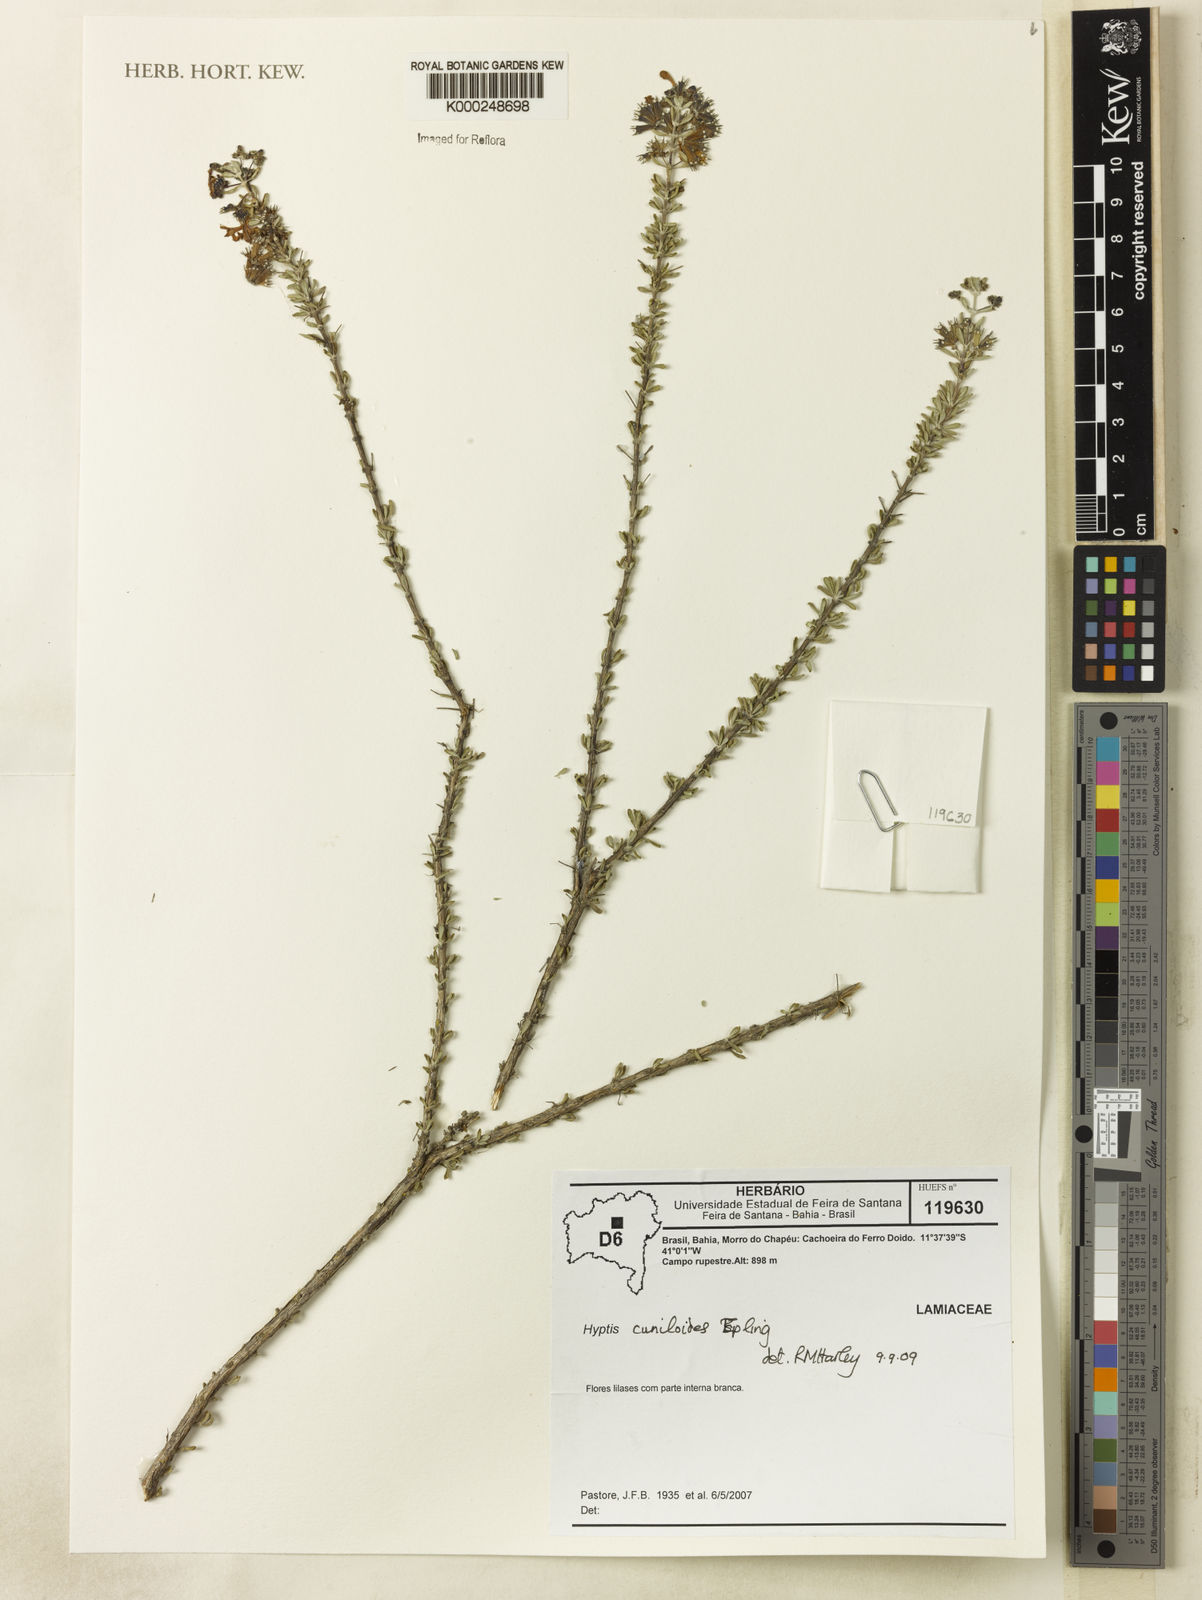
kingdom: Plantae
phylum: Tracheophyta
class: Magnoliopsida
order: Lamiales
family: Lamiaceae
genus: Eplingiella
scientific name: Eplingiella cuniloides
